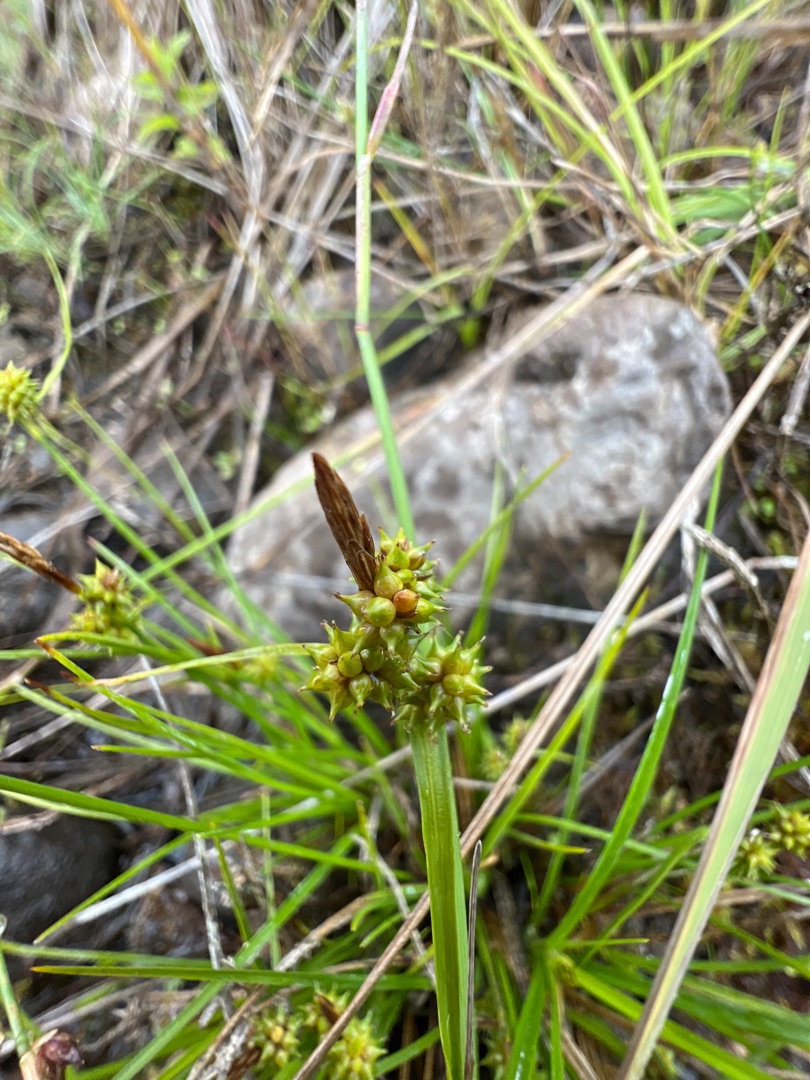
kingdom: Plantae
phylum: Tracheophyta
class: Liliopsida
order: Poales
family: Cyperaceae
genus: Carex
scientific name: Carex oederi
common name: Dværg-star
